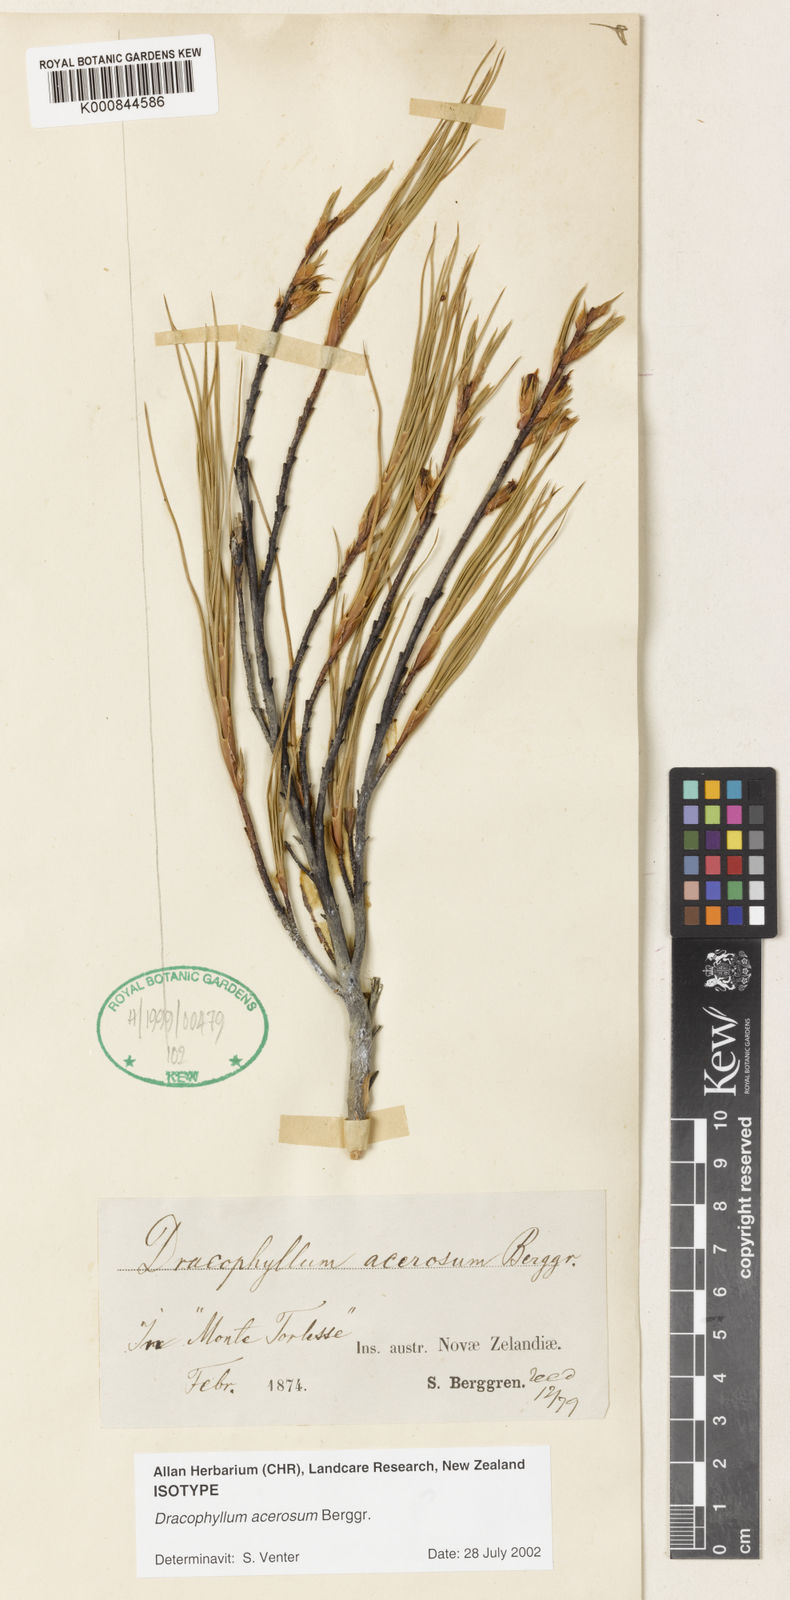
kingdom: Plantae
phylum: Tracheophyta
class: Magnoliopsida
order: Ericales
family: Ericaceae
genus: Dracophyllum
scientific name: Dracophyllum acerosum
